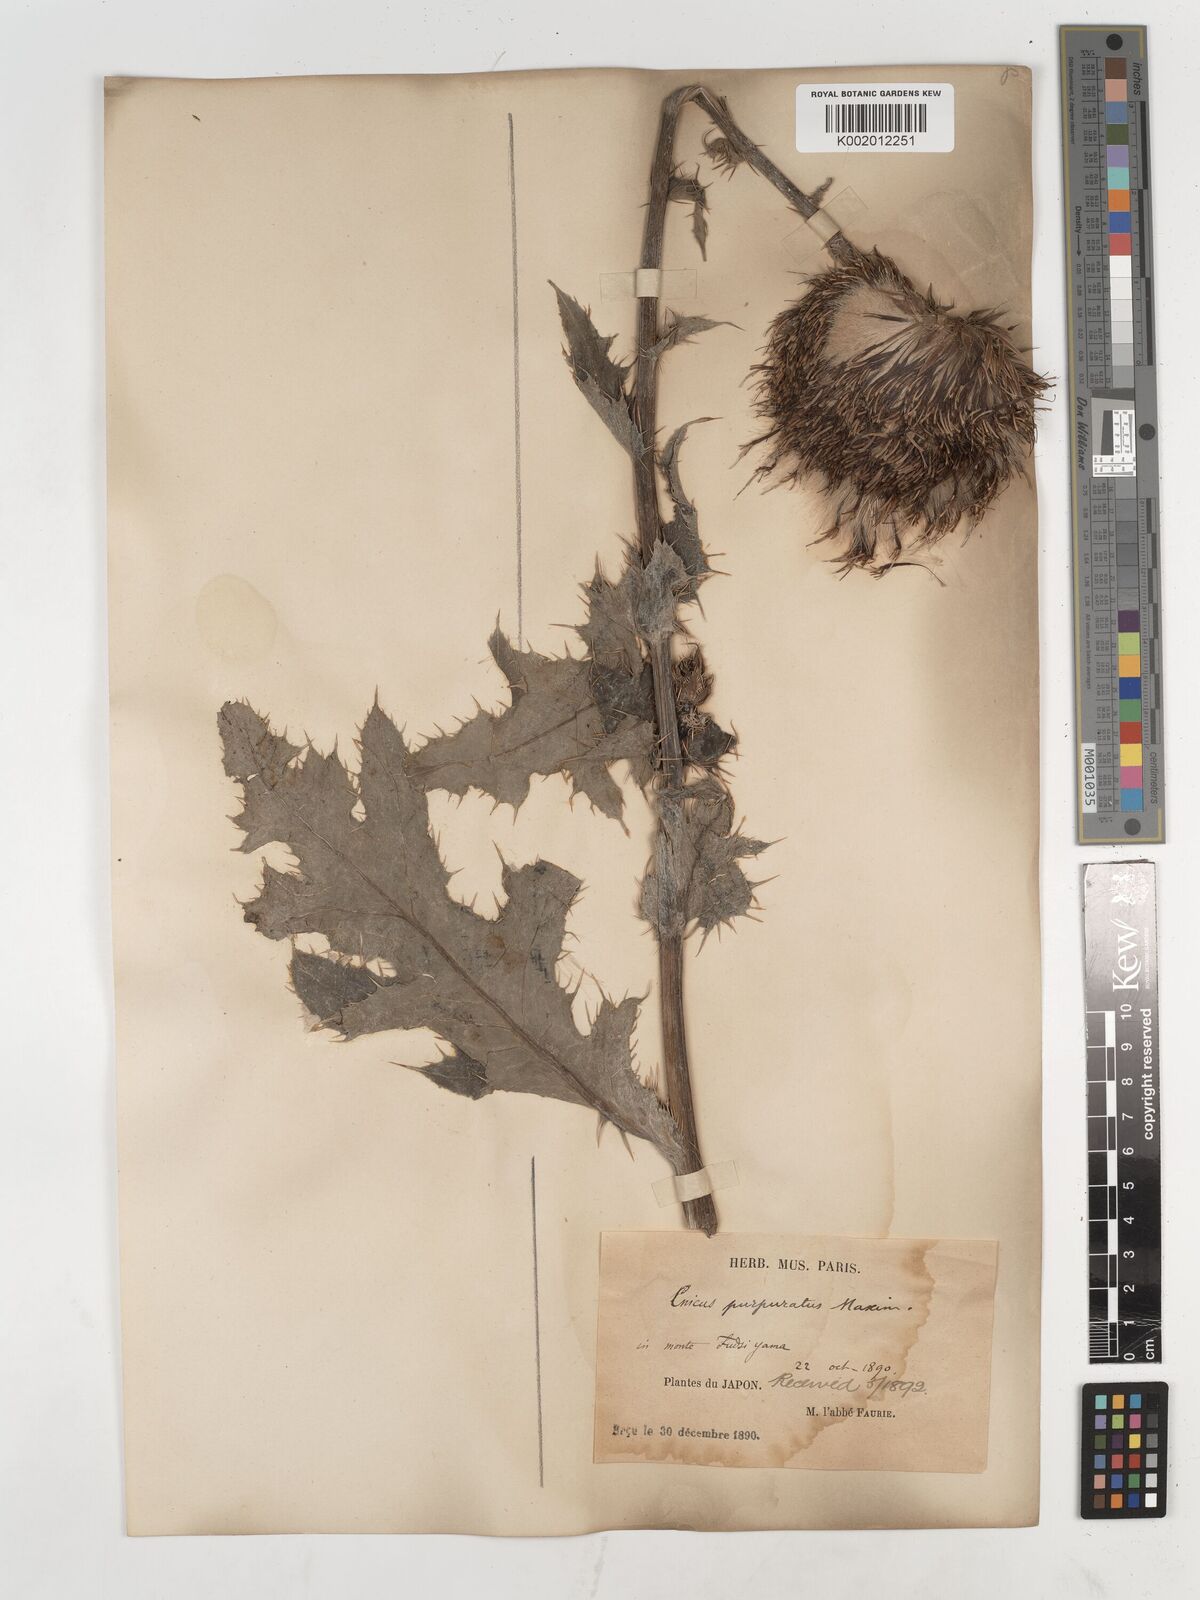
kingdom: Plantae
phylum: Tracheophyta
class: Magnoliopsida
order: Asterales
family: Asteraceae
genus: Cirsium
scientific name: Cirsium purpuratum
